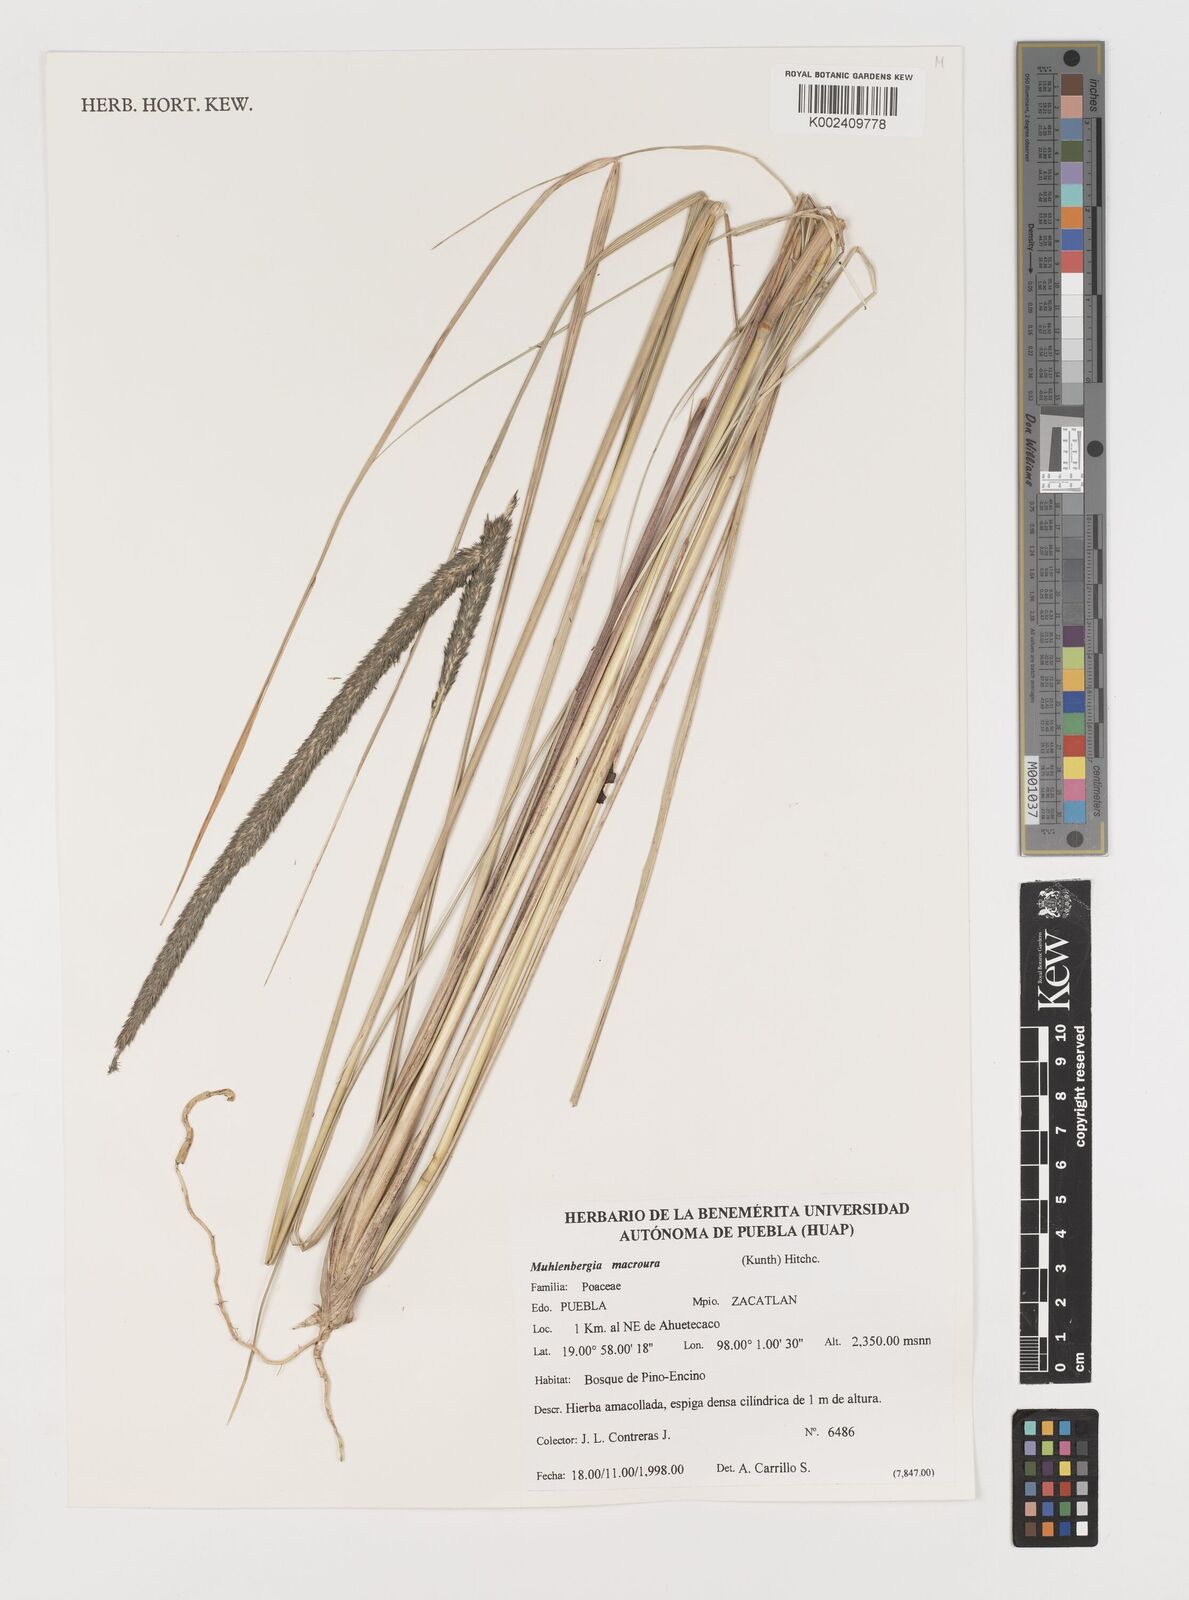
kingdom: Plantae
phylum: Tracheophyta
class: Liliopsida
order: Poales
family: Poaceae
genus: Muhlenbergia
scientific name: Muhlenbergia macroura
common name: Mexican broomroot
